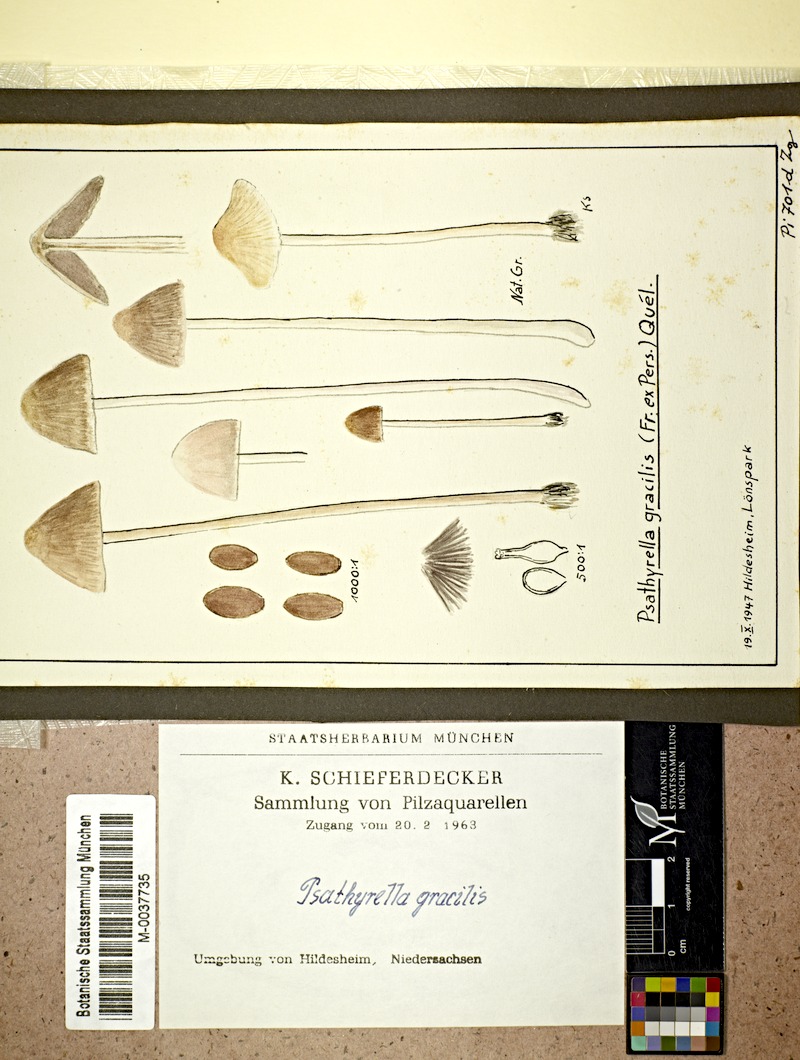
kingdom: Fungi
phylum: Basidiomycota
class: Agaricomycetes
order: Agaricales
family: Psathyrellaceae
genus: Psathyrella
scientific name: Psathyrella corrugis
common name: Red edge brittlestem
